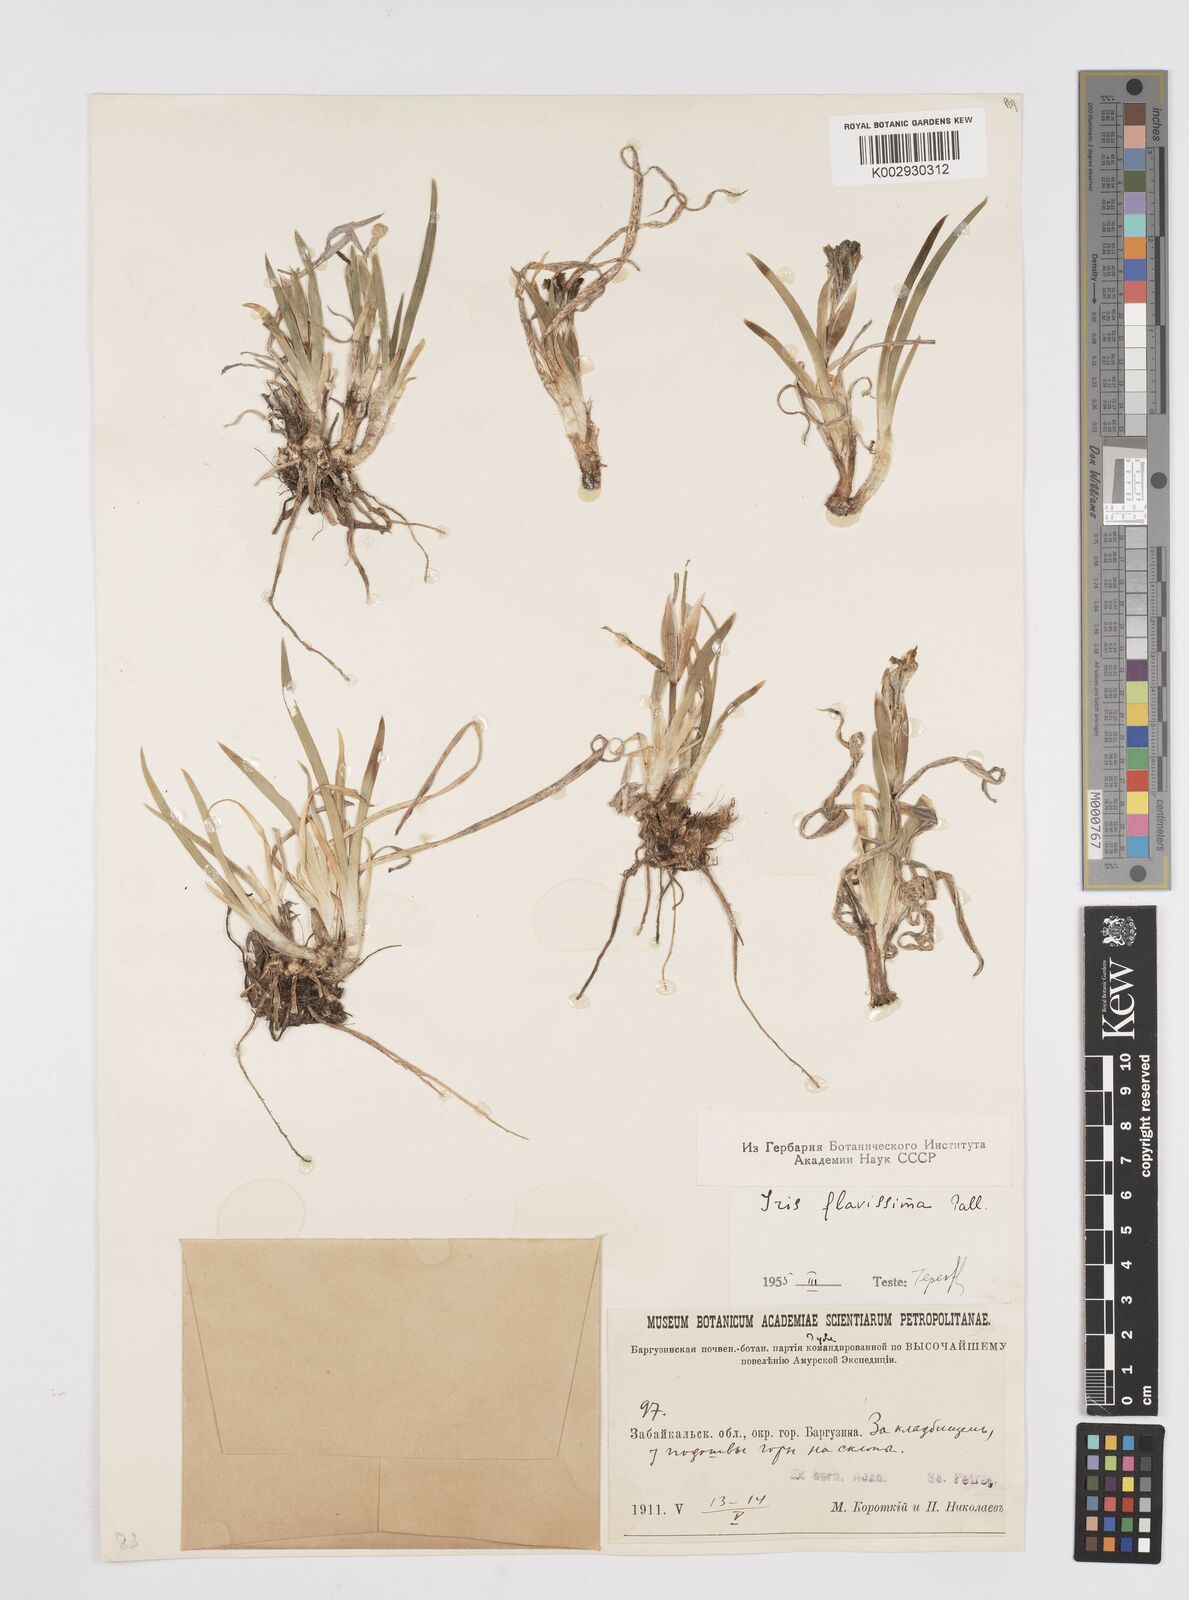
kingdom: Plantae
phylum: Tracheophyta
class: Liliopsida
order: Asparagales
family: Iridaceae
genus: Iris
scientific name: Iris humilis
